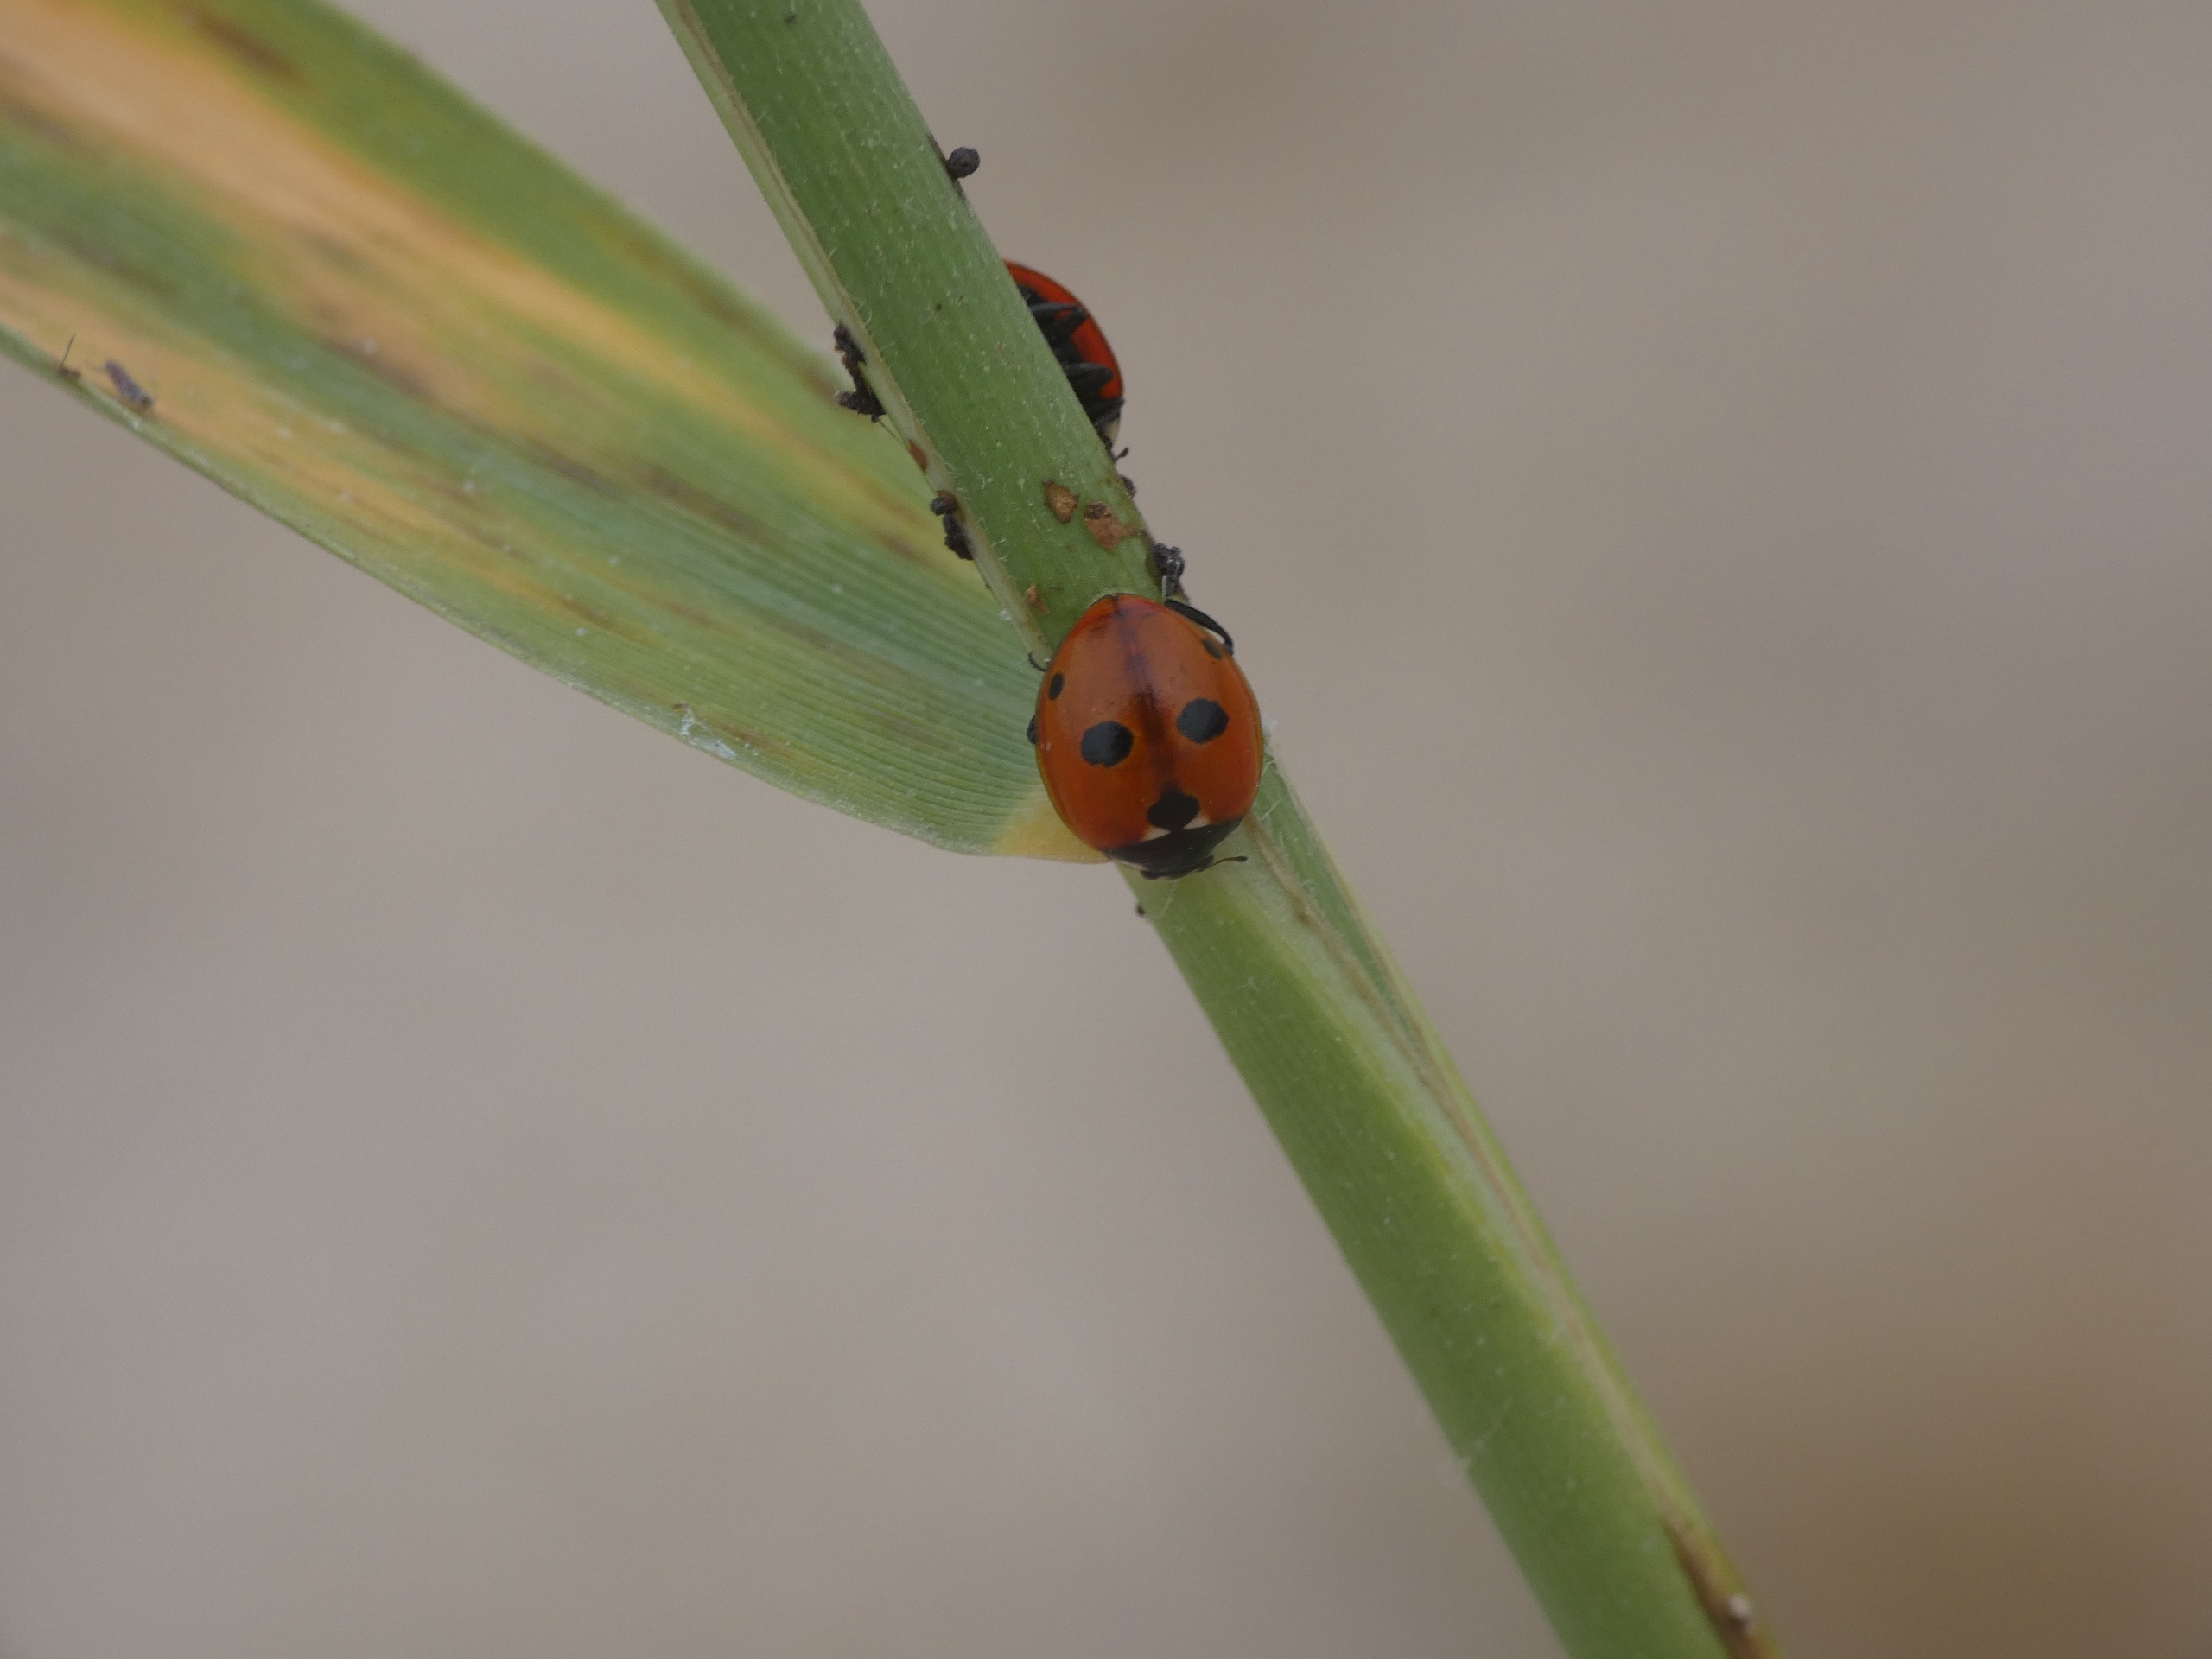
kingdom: Animalia
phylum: Arthropoda
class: Insecta
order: Coleoptera
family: Coccinellidae
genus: Coccinella
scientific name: Coccinella quinquepunctata
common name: Femplettet mariehøne
